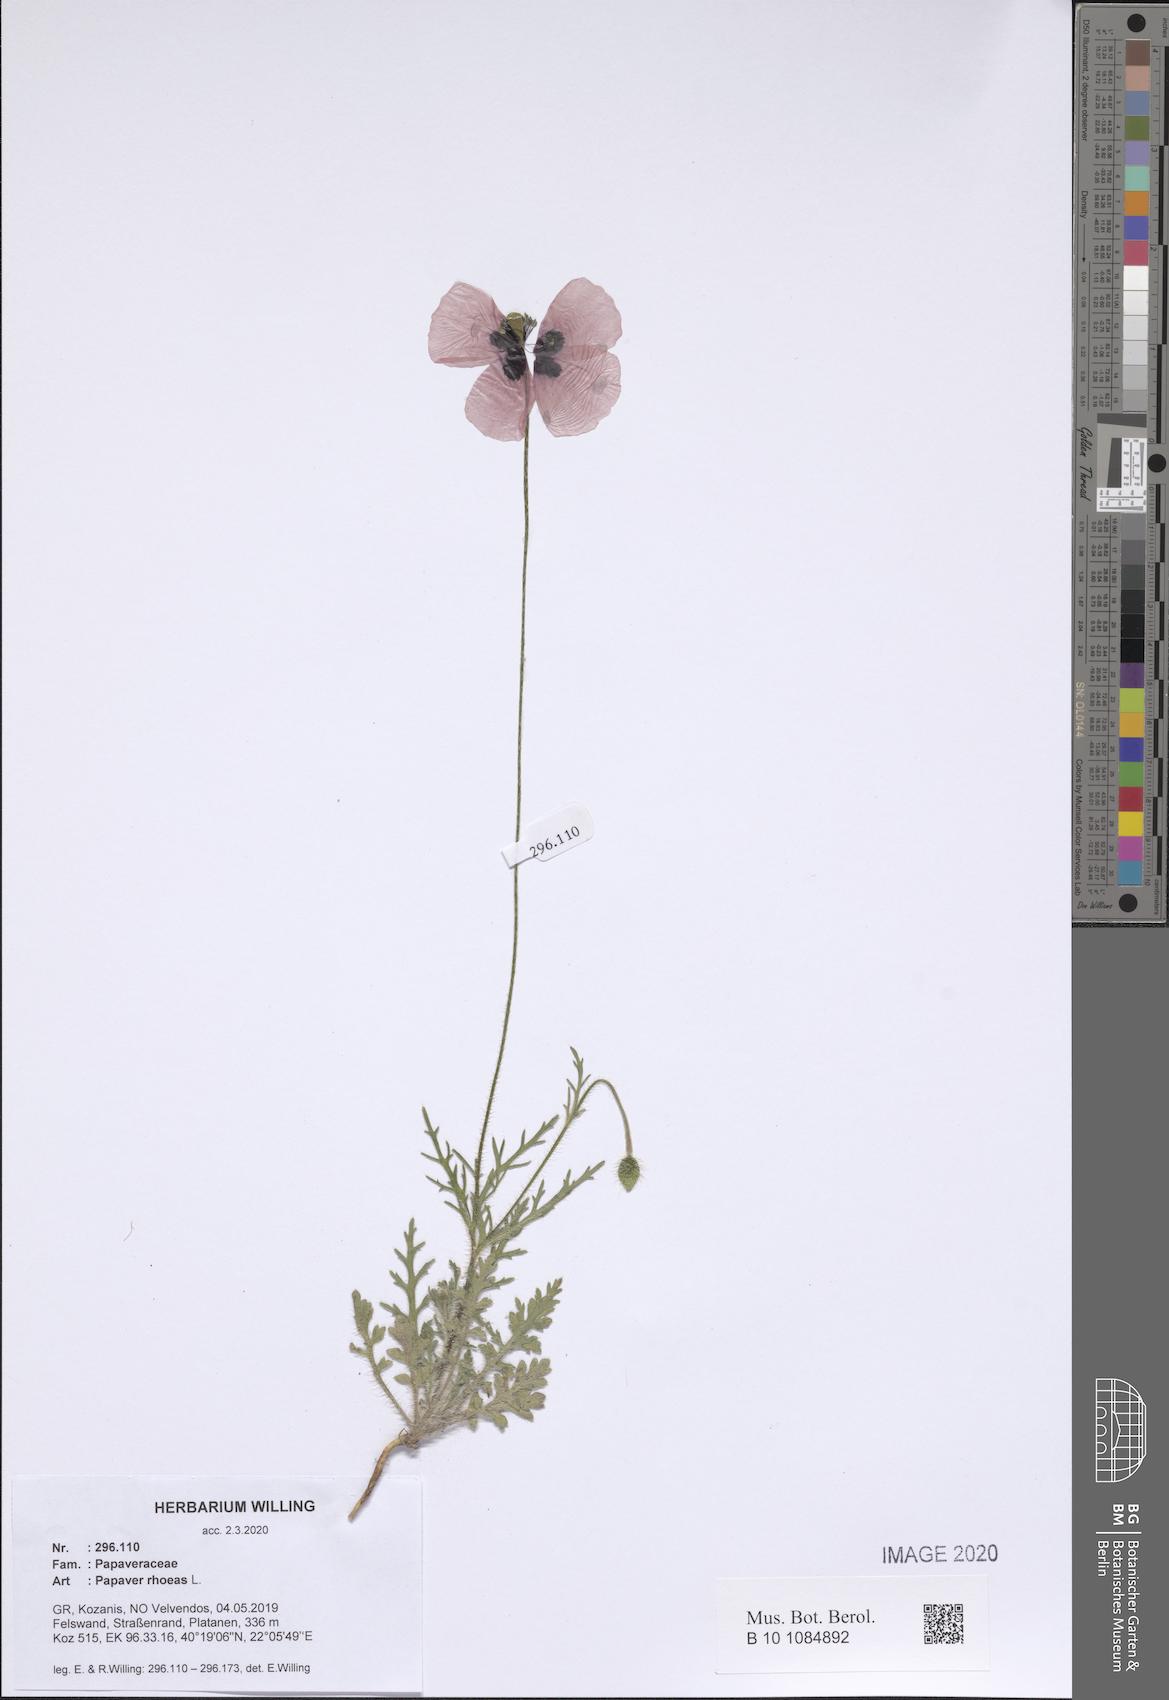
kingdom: Plantae
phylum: Tracheophyta
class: Magnoliopsida
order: Ranunculales
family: Papaveraceae
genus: Papaver
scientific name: Papaver rhoeas
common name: Corn poppy
